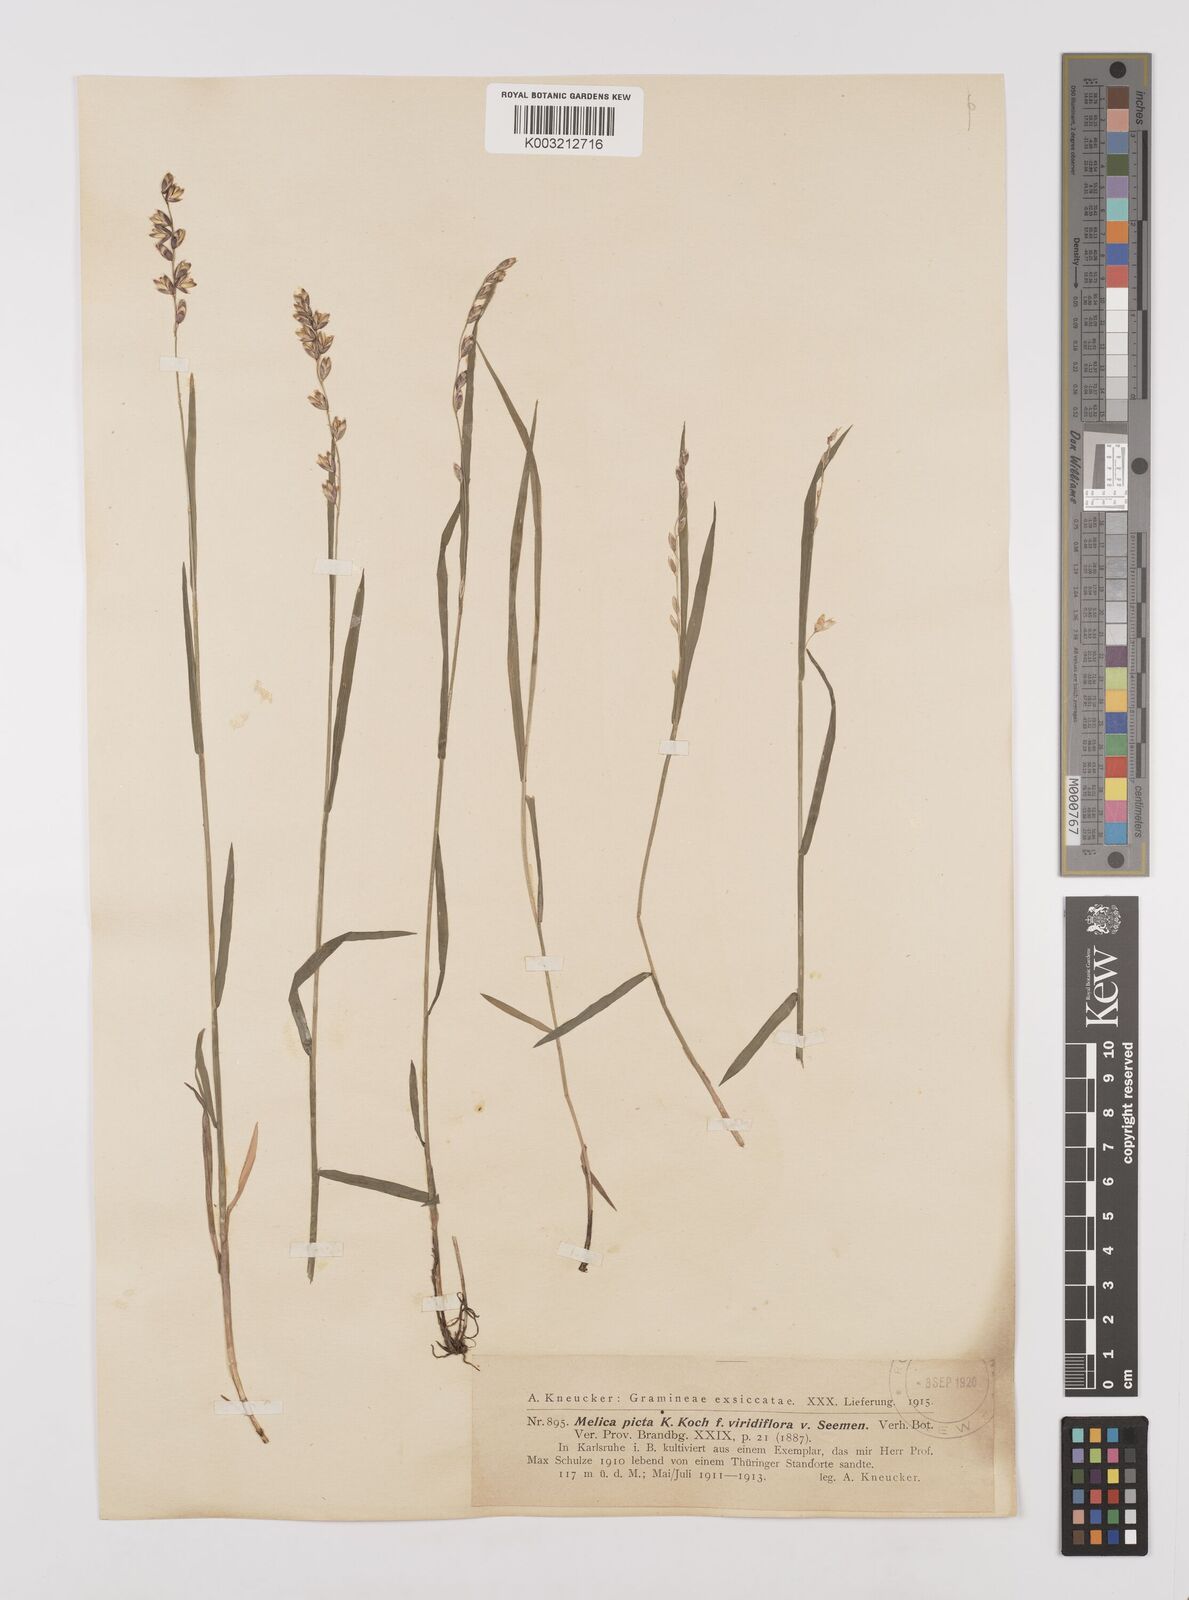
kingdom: Plantae
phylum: Tracheophyta
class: Liliopsida
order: Poales
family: Poaceae
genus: Melica
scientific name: Melica picta
